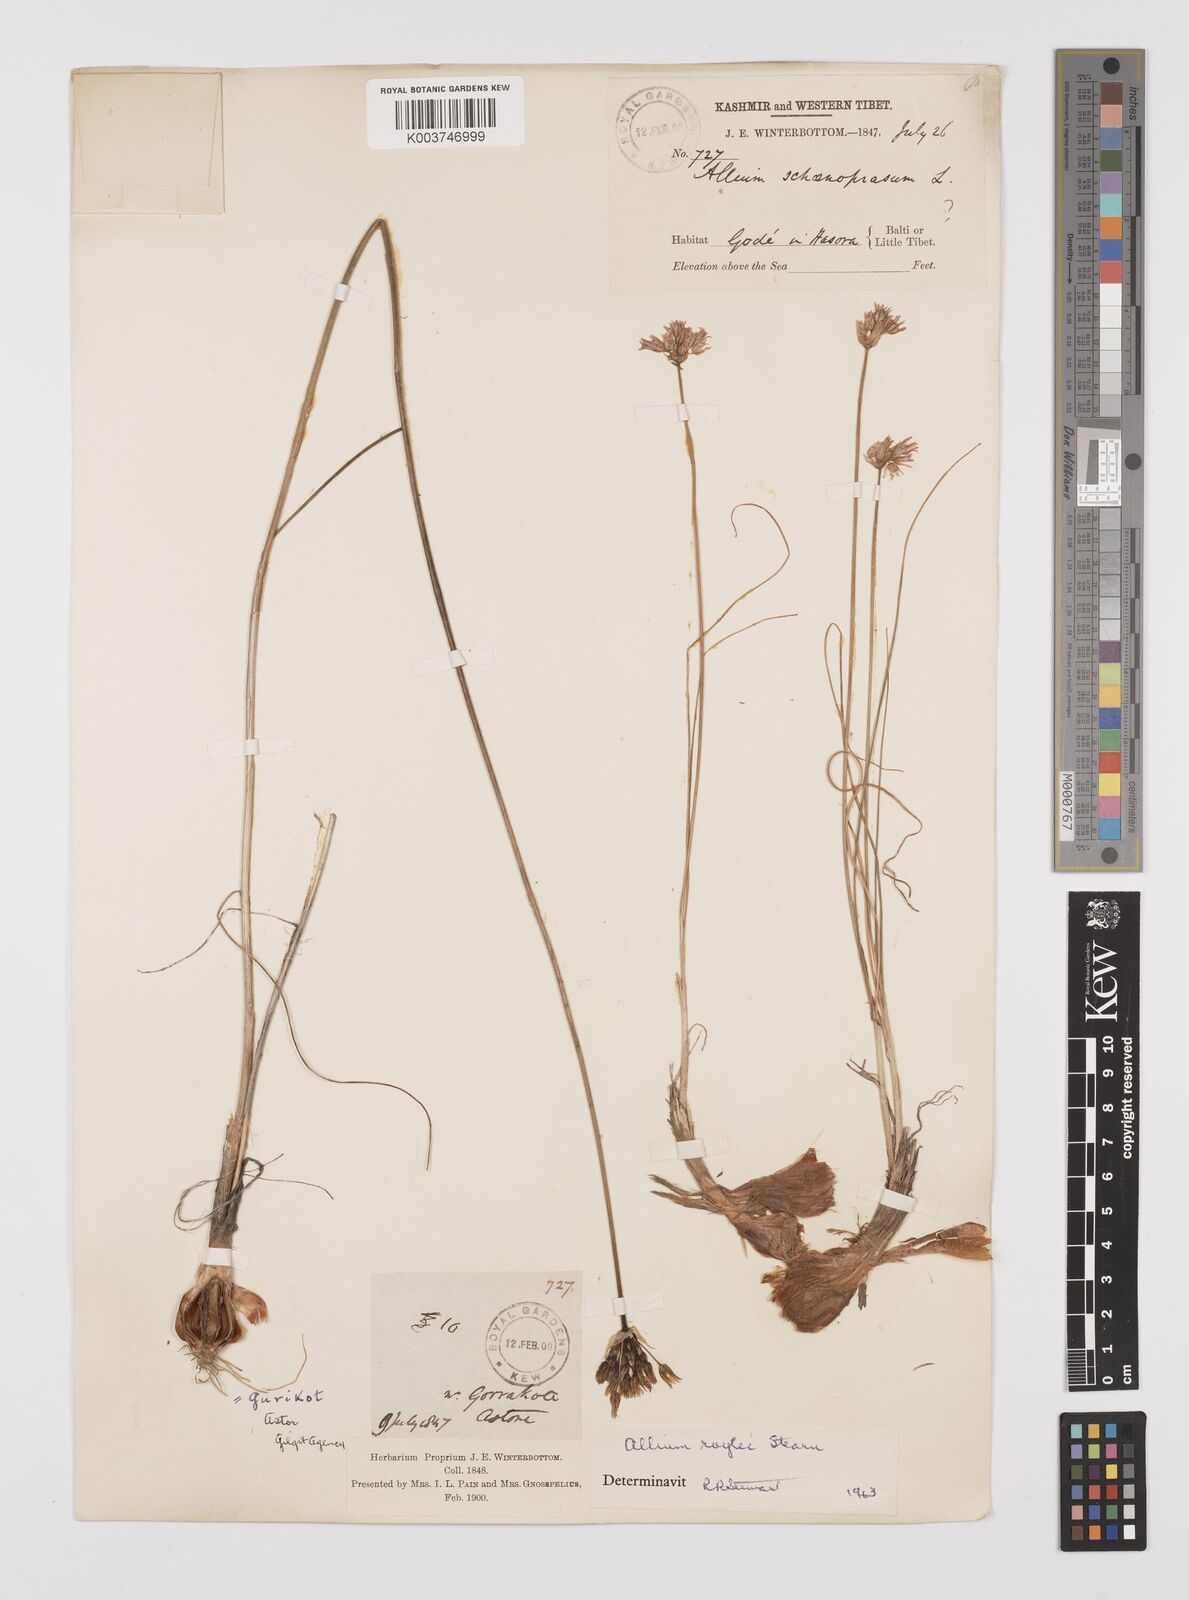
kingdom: Plantae
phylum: Tracheophyta
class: Liliopsida
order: Asparagales
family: Amaryllidaceae
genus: Allium
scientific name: Allium roylei
